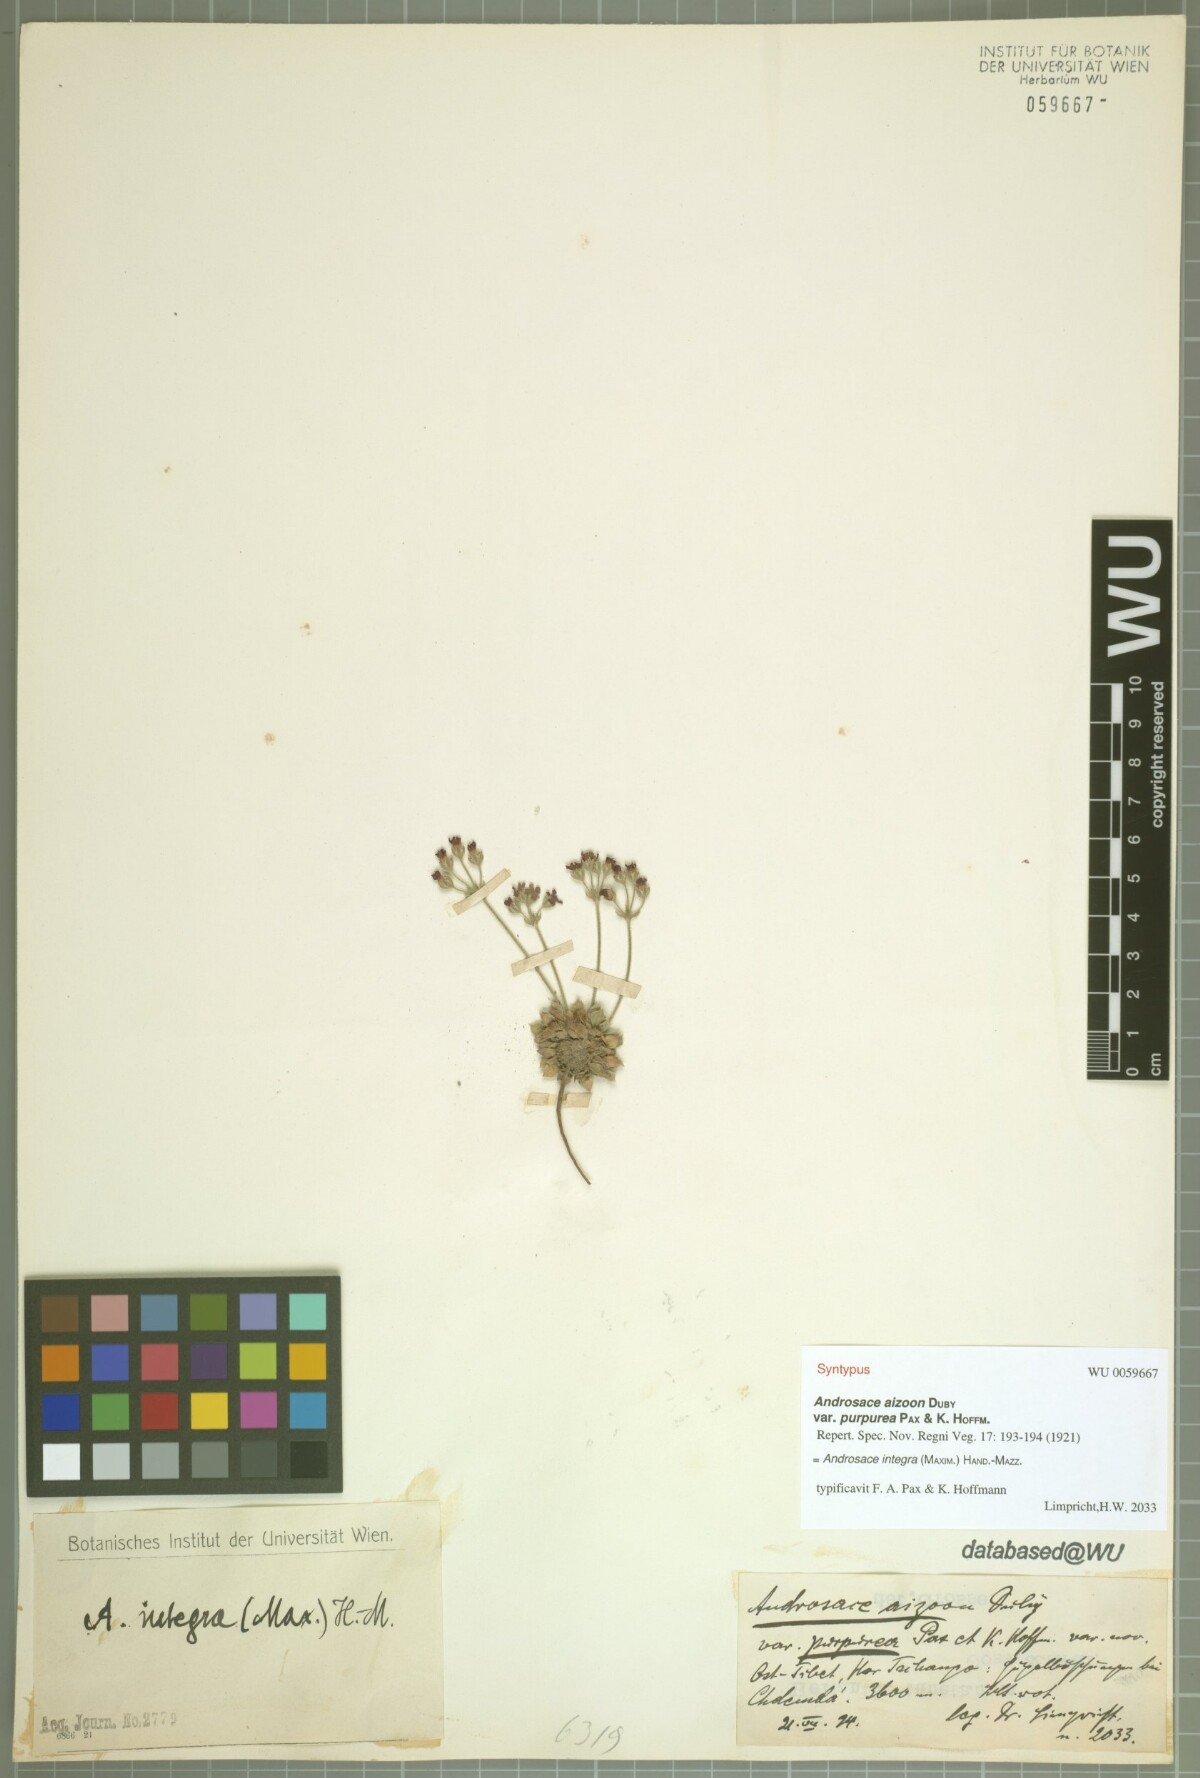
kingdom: Plantae
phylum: Tracheophyta
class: Magnoliopsida
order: Ericales
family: Primulaceae
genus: Androsace
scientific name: Androsace integra
